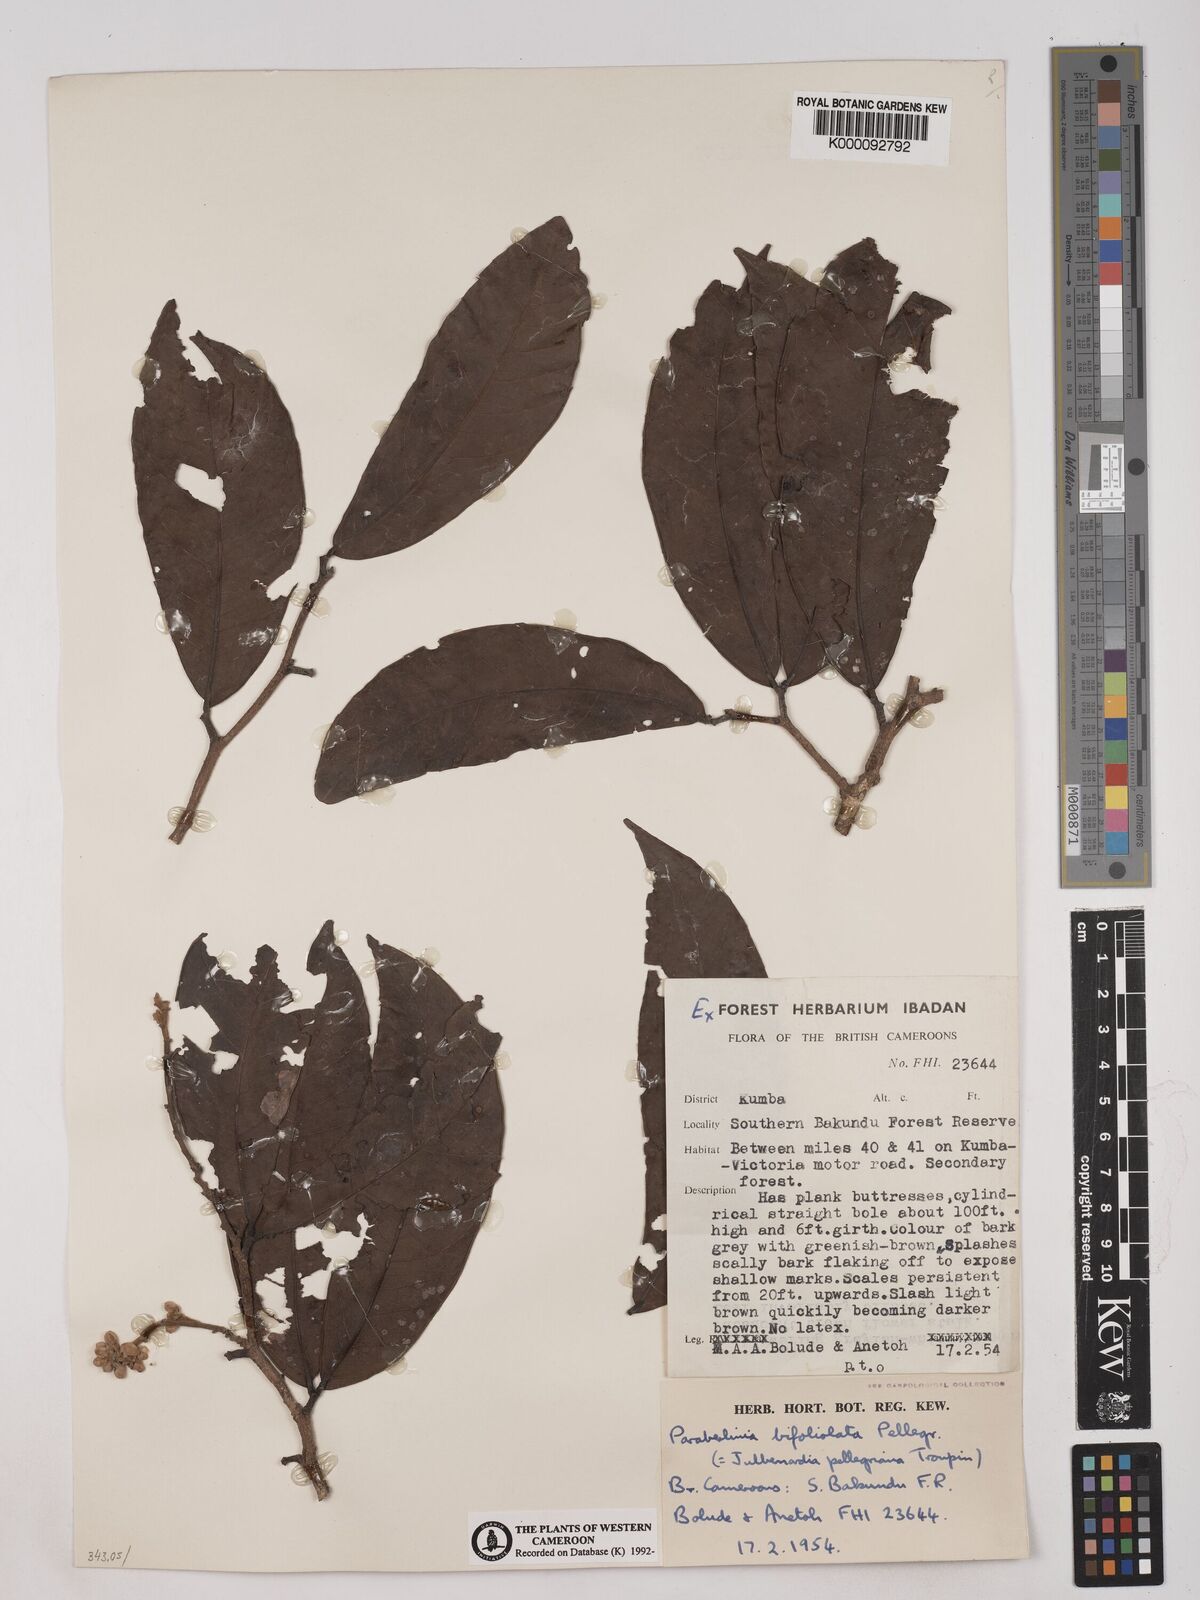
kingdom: Plantae
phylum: Tracheophyta
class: Magnoliopsida
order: Fabales
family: Fabaceae
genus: Julbernardia
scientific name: Julbernardia pellegriniana
